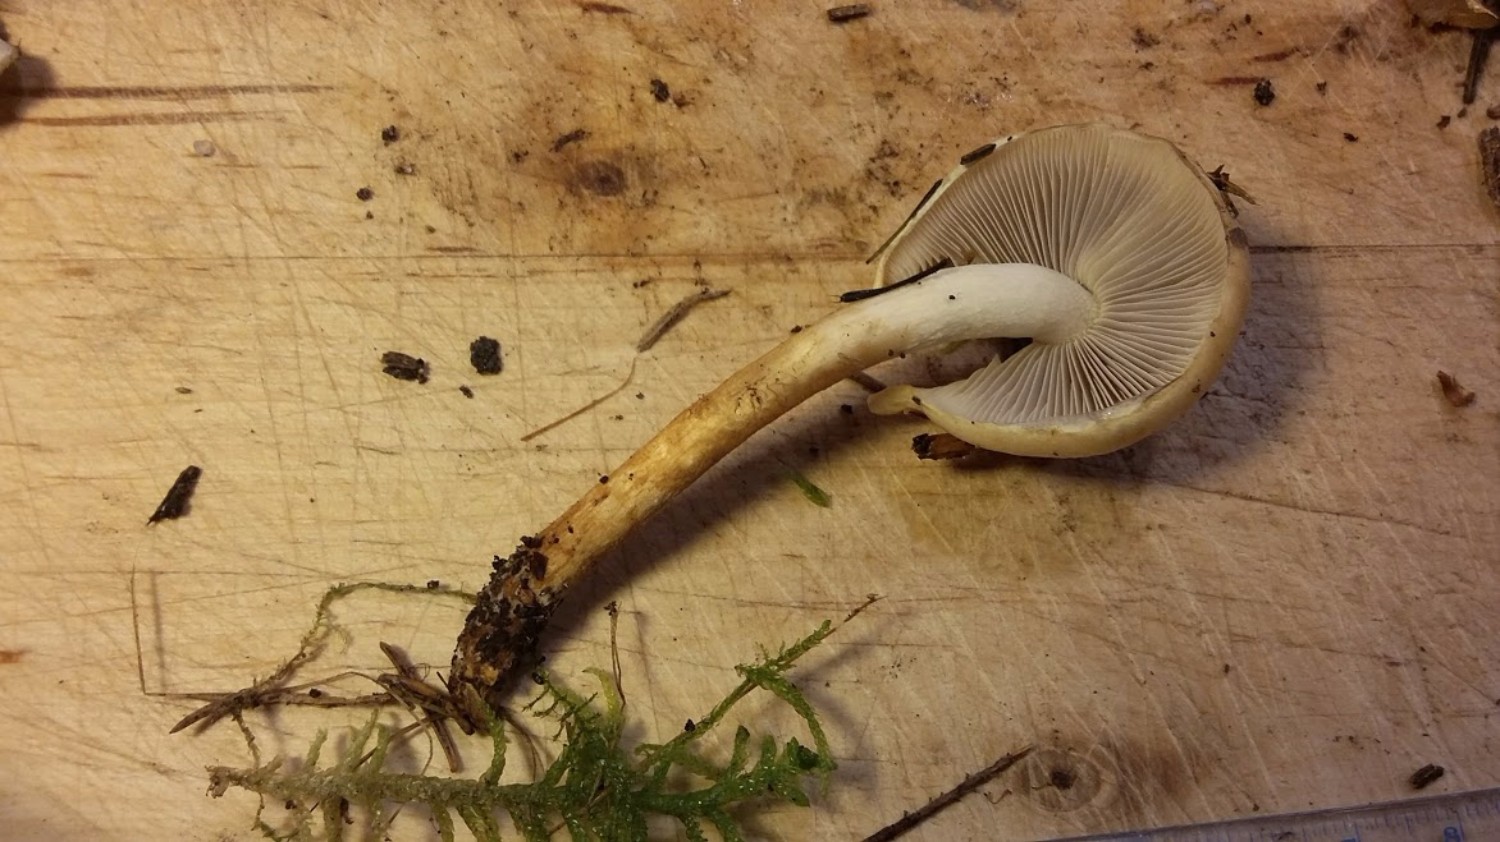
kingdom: Fungi
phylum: Basidiomycota
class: Agaricomycetes
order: Agaricales
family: Strophariaceae
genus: Hypholoma
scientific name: Hypholoma capnoides
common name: gran-svovlhat
